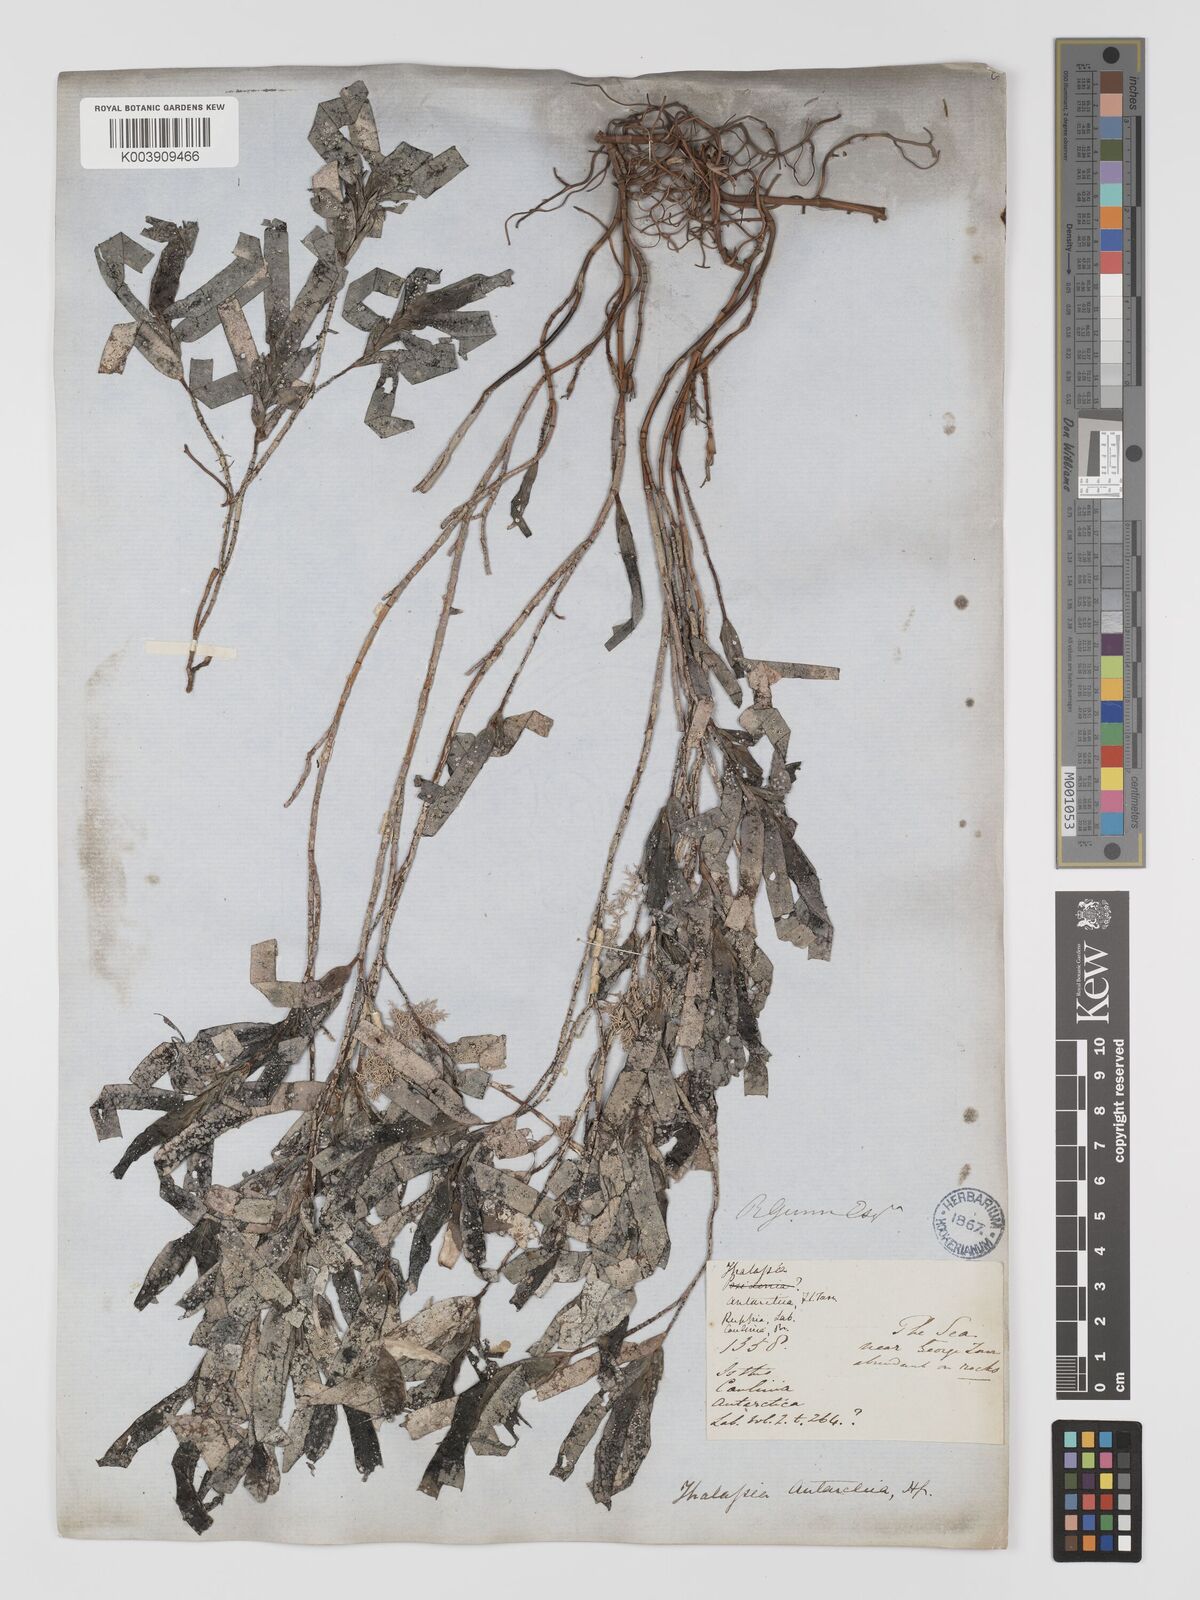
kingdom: Plantae
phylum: Tracheophyta
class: Liliopsida
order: Alismatales
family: Cymodoceaceae
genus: Amphibolis
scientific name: Amphibolis antarctica
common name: Species code: aa
